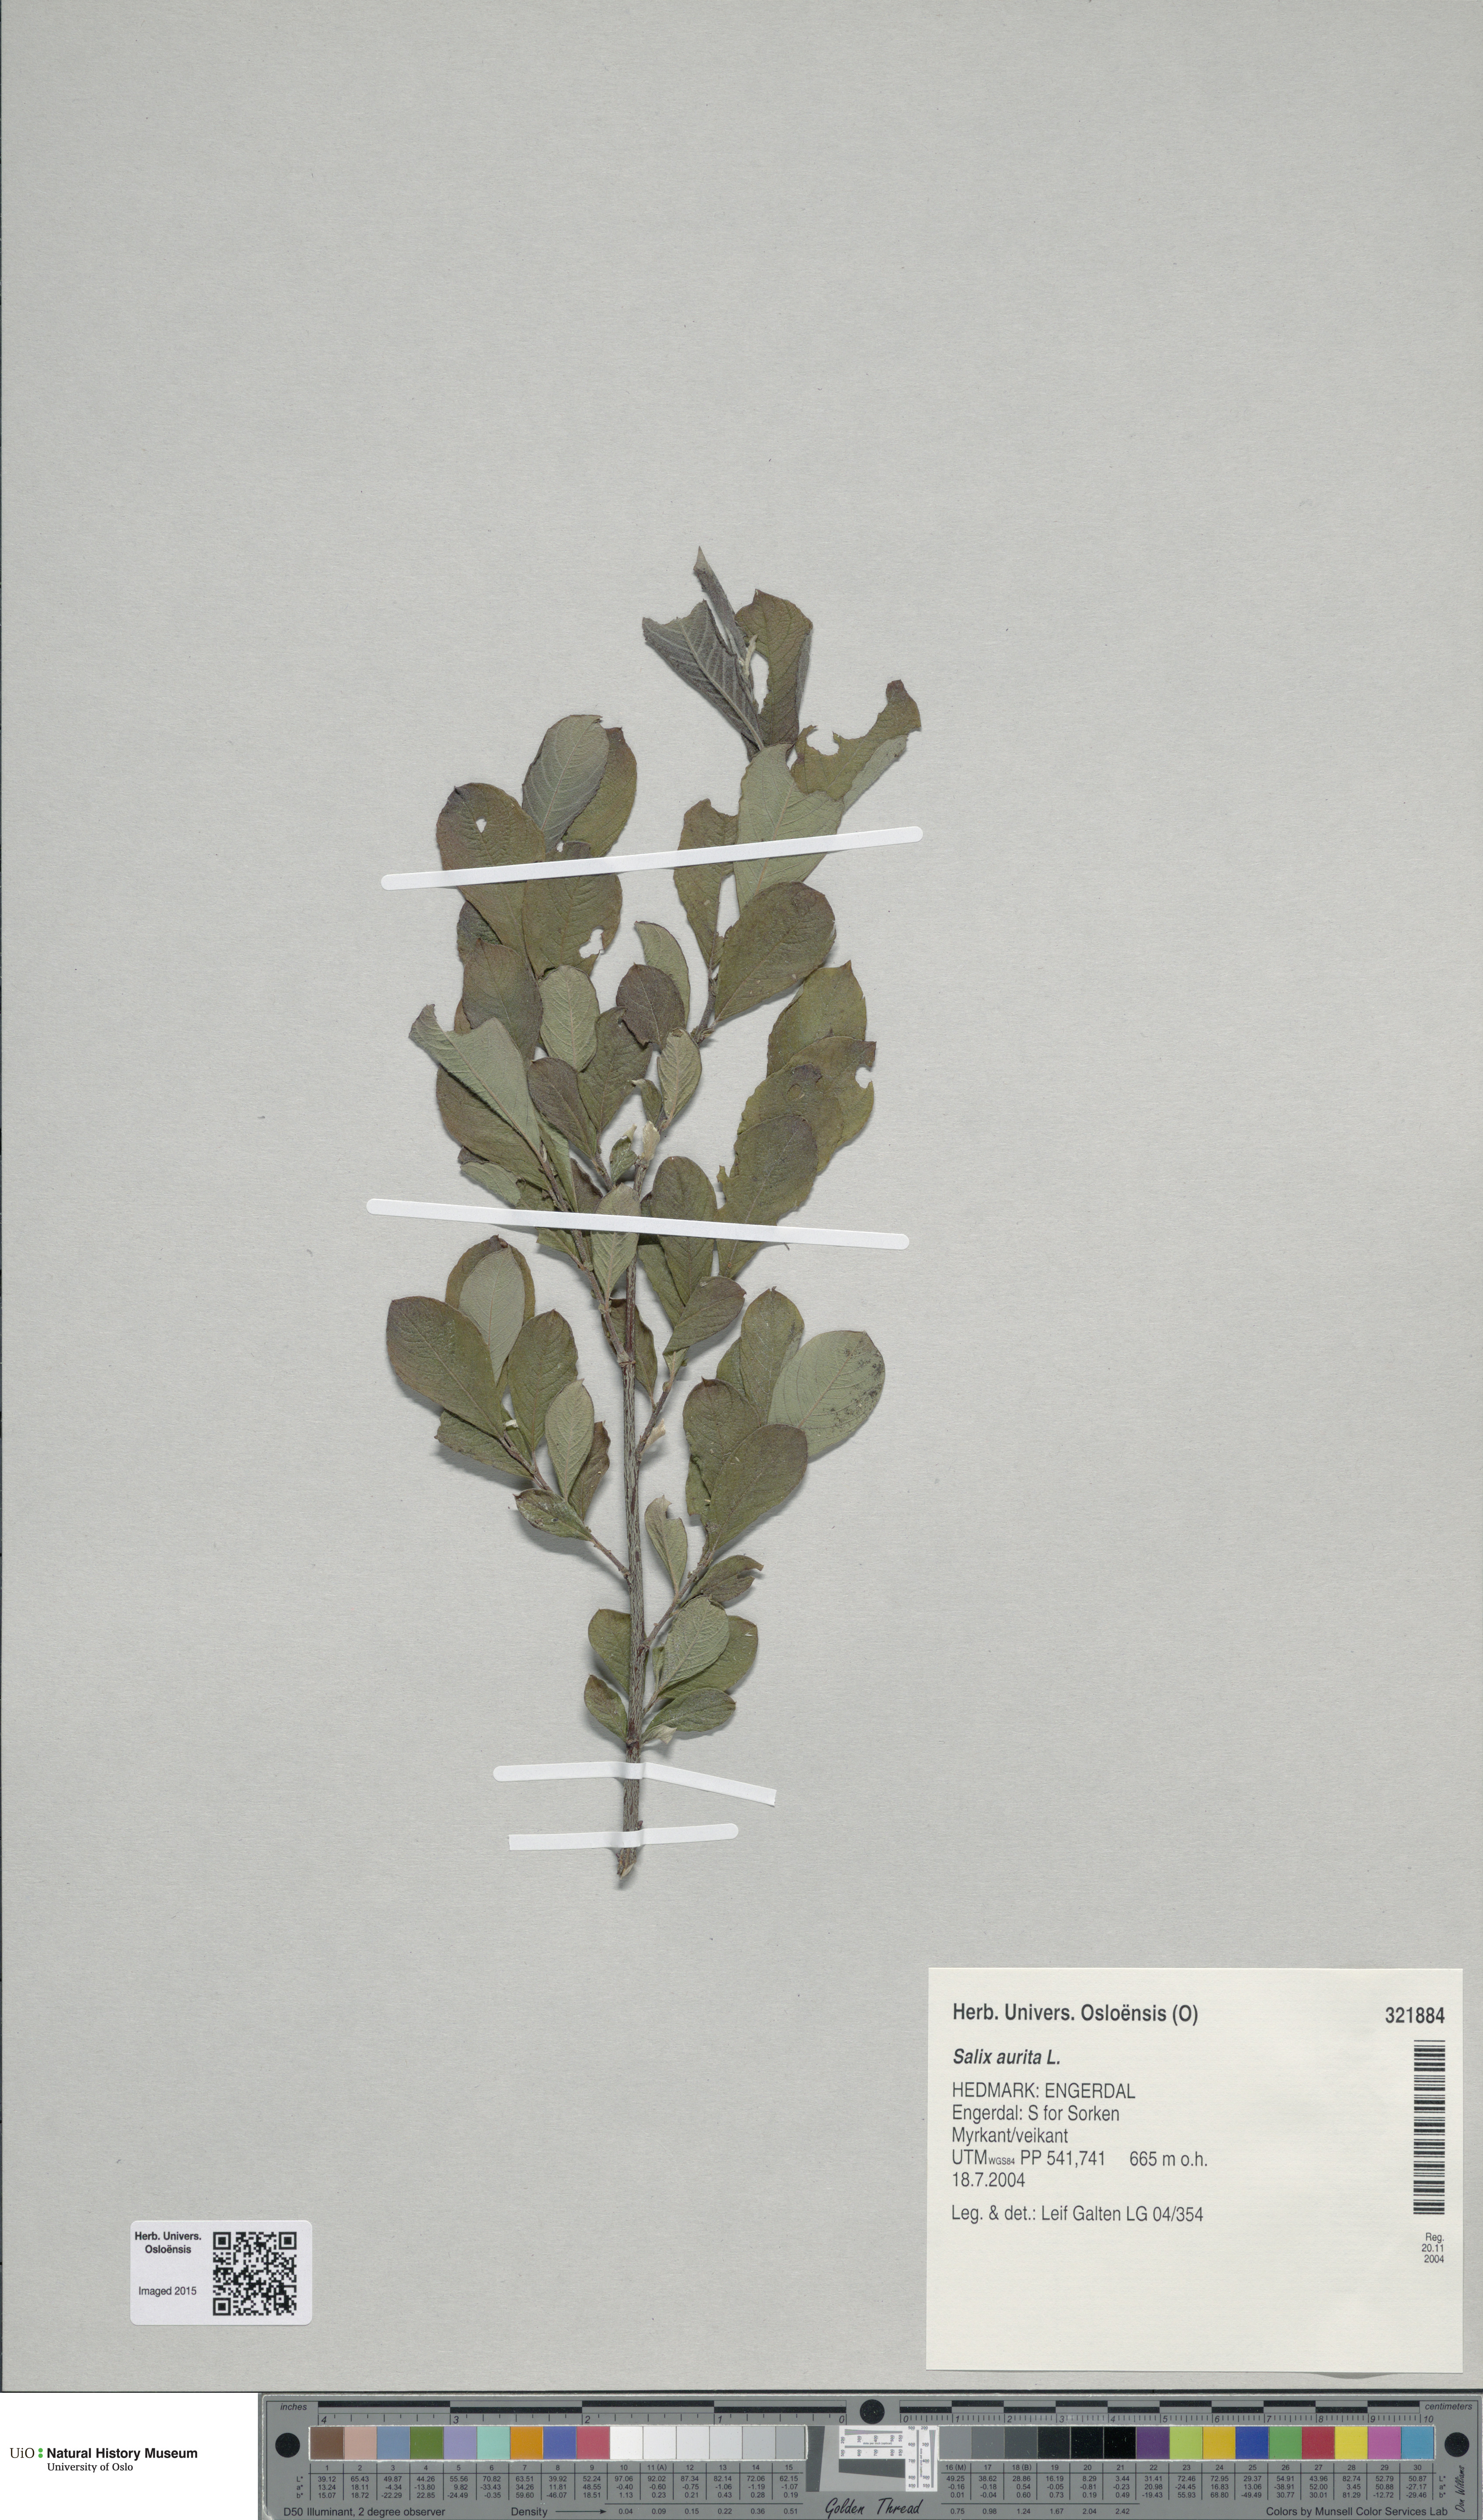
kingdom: Plantae
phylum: Tracheophyta
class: Magnoliopsida
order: Malpighiales
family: Salicaceae
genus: Salix
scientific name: Salix aurita
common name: Eared willow
